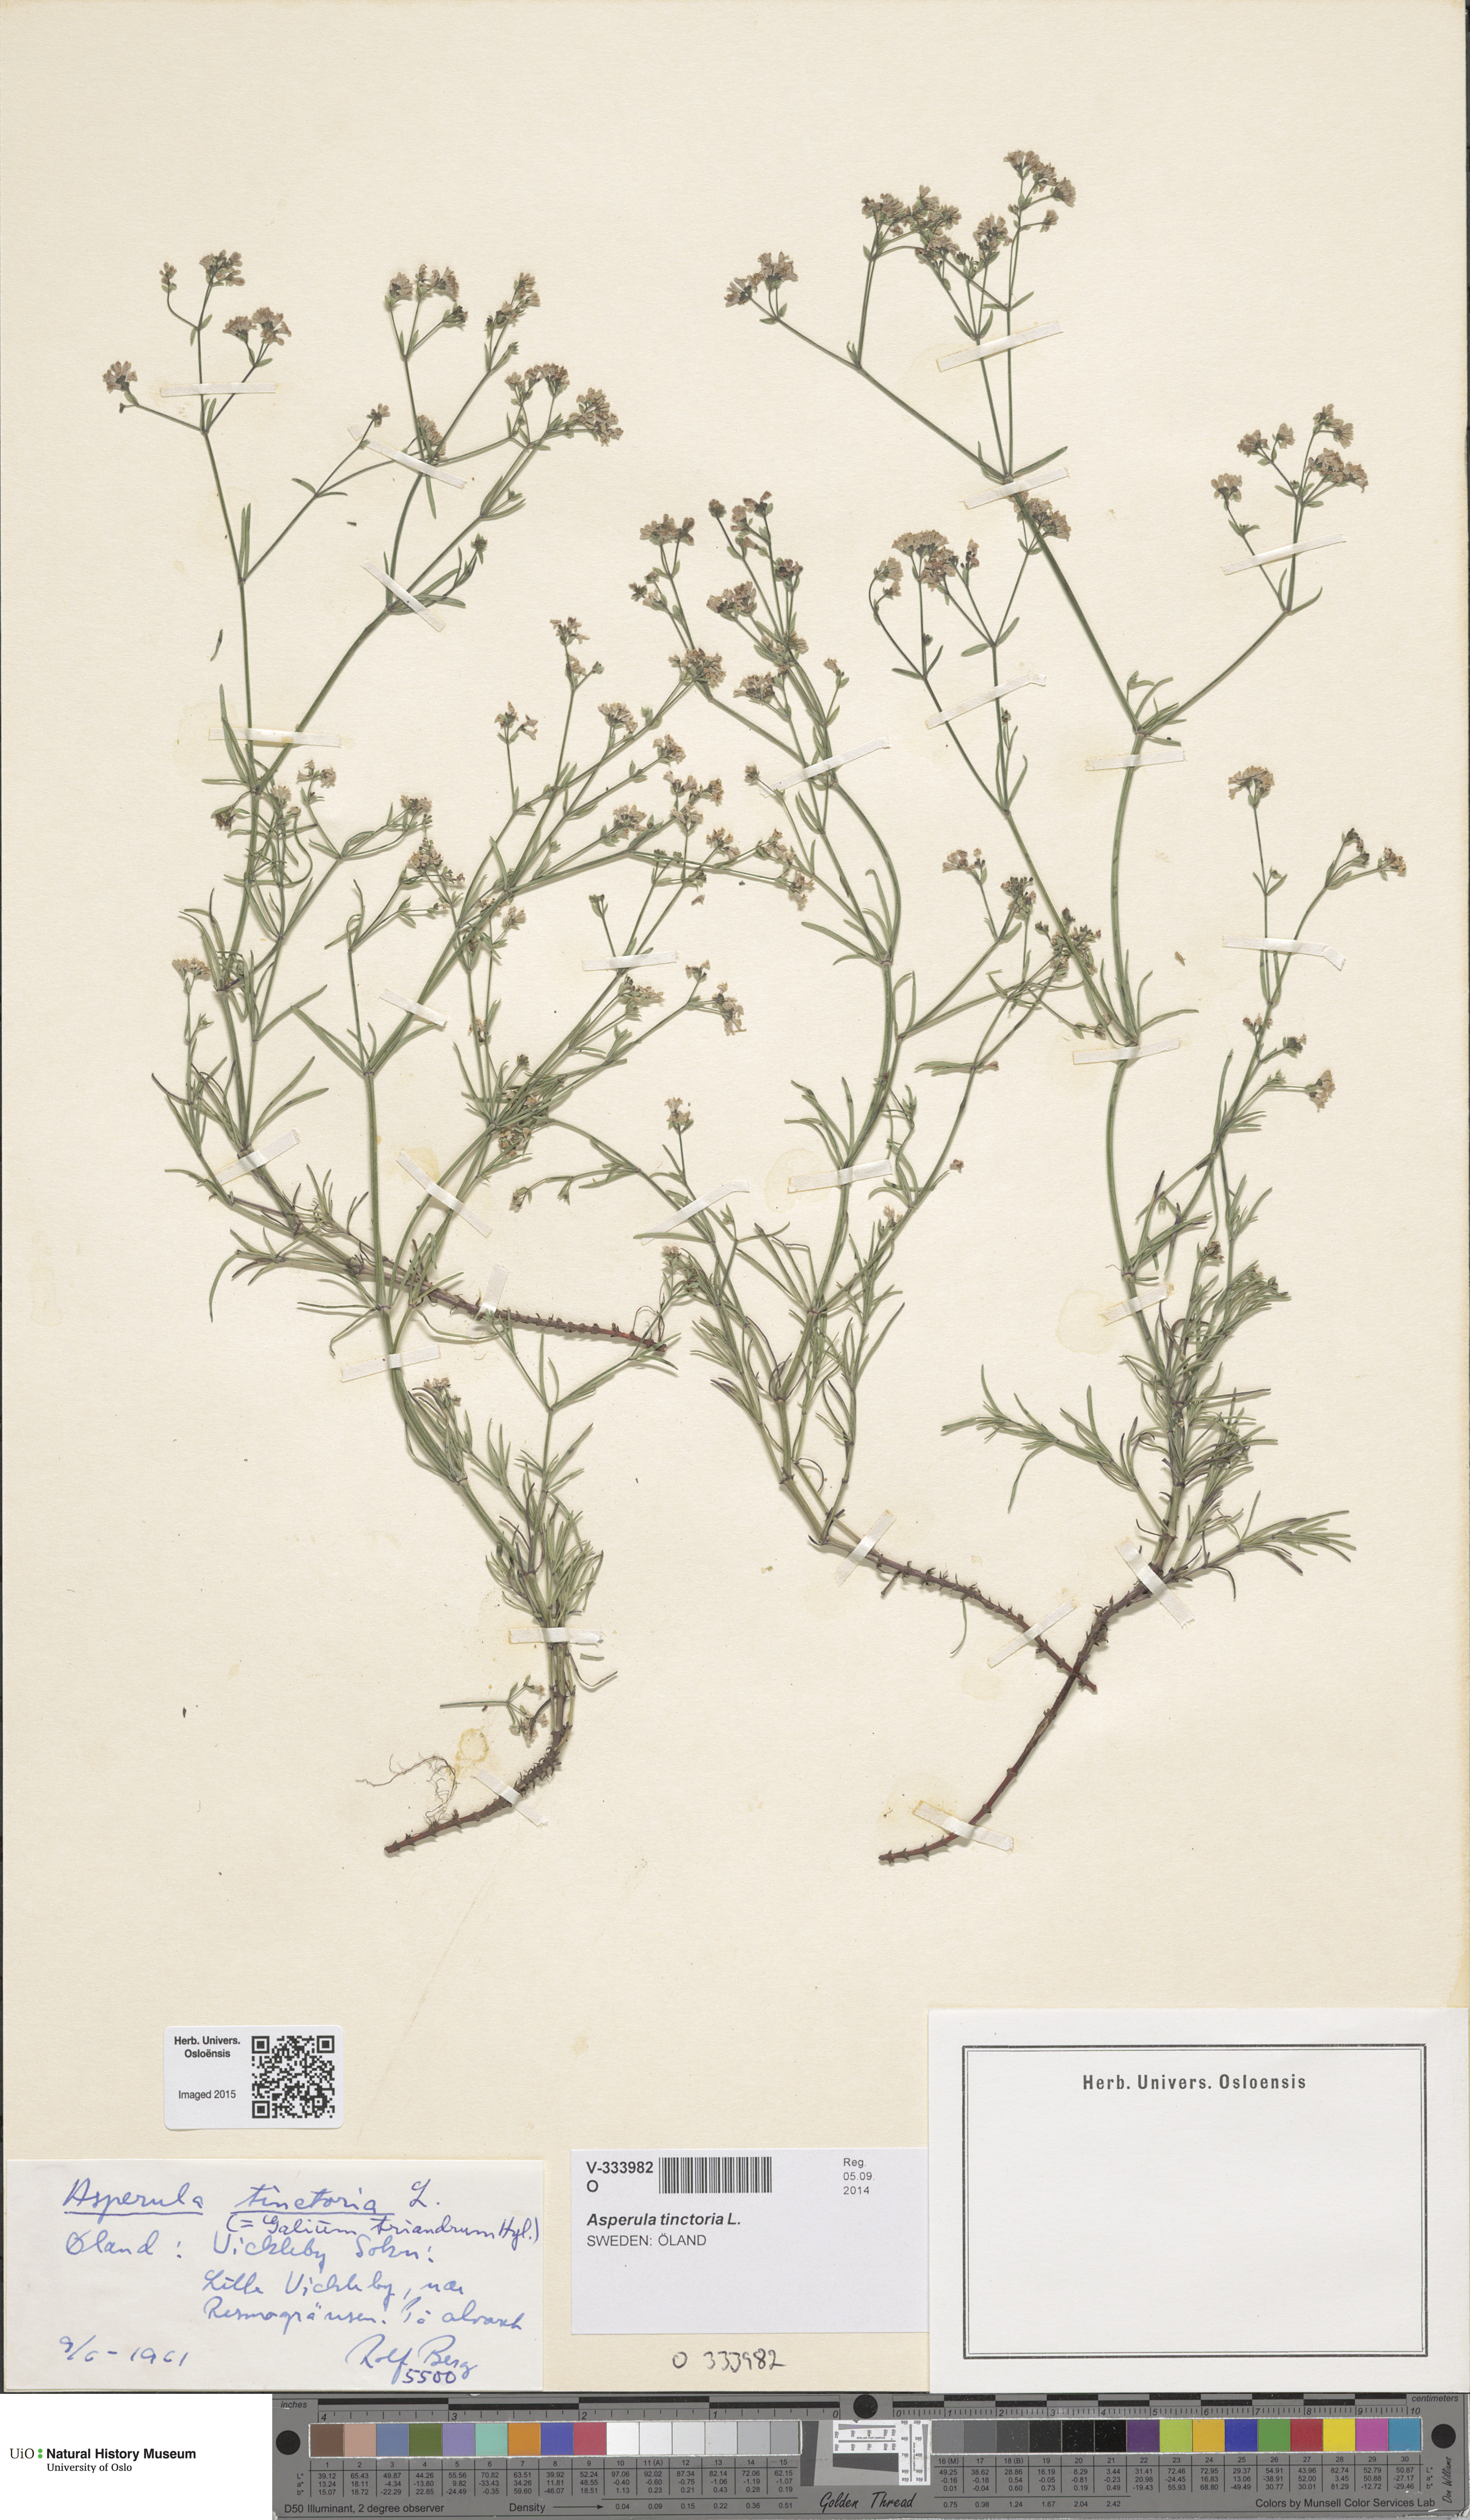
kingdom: Plantae
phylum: Tracheophyta
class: Magnoliopsida
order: Gentianales
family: Rubiaceae
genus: Asperula
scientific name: Asperula tinctoria
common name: Dyer's woodruff
